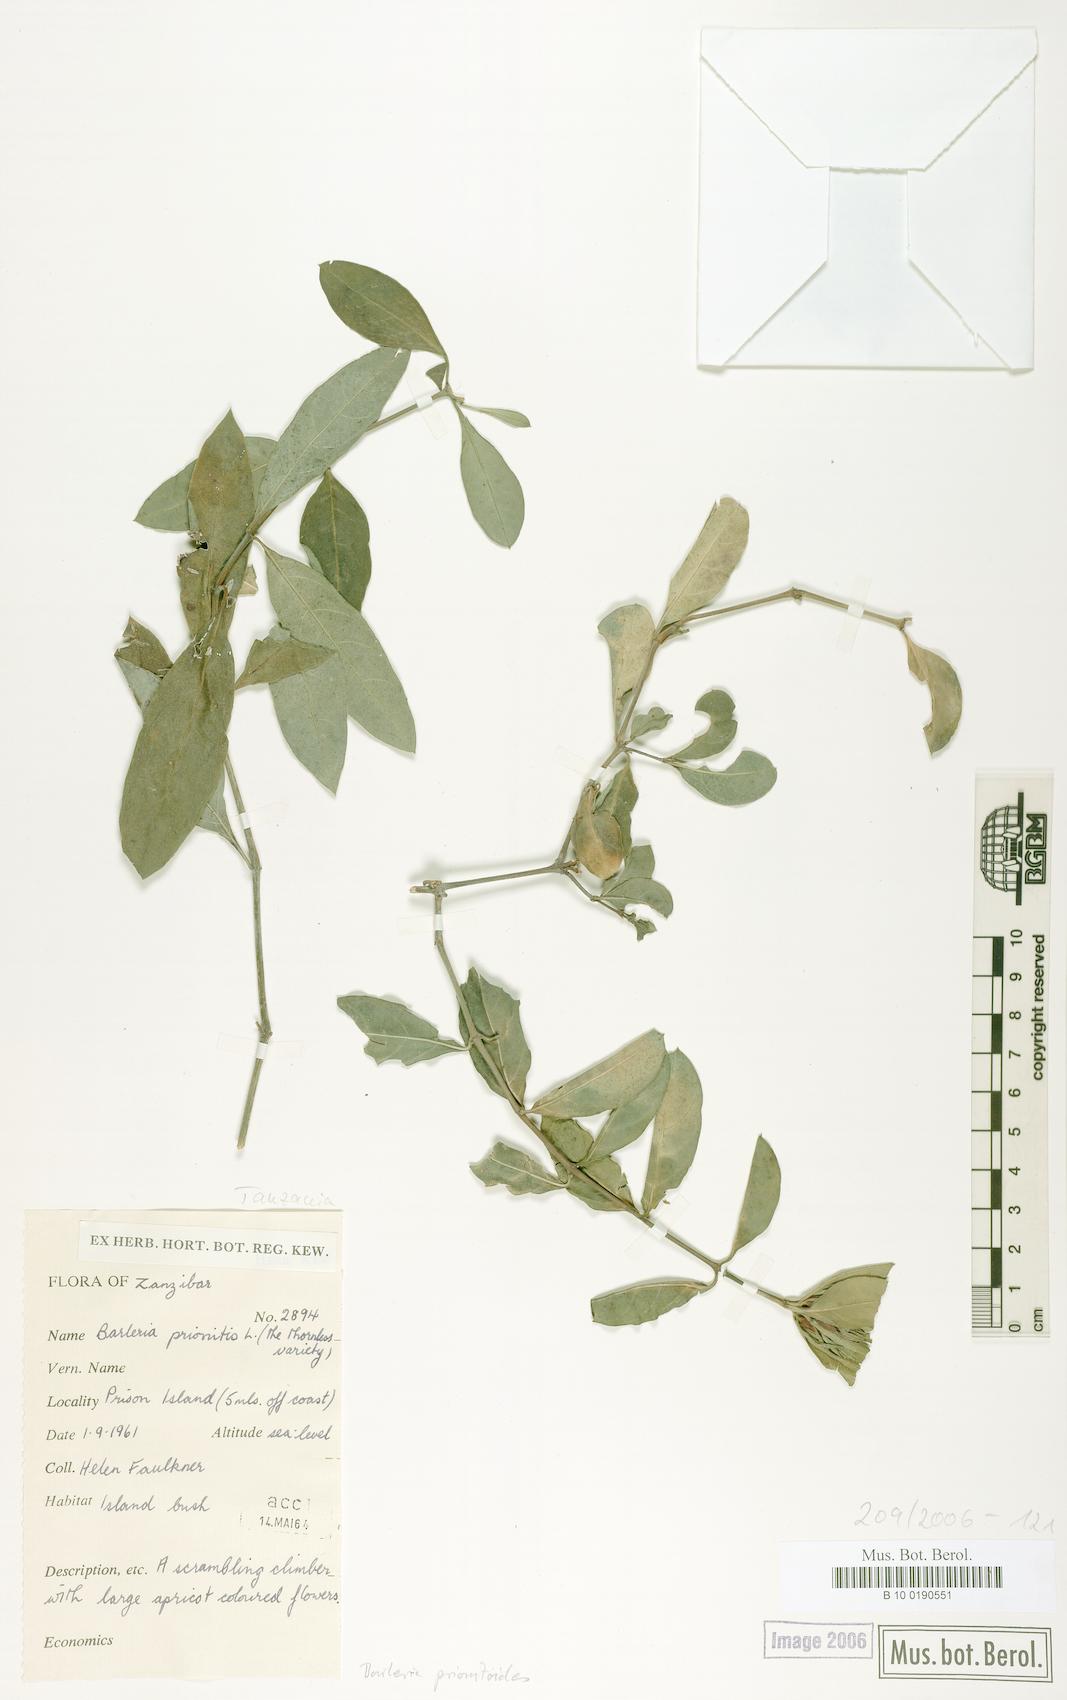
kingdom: Plantae
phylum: Tracheophyta
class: Magnoliopsida
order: Lamiales
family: Acanthaceae
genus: Barleria
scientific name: Barleria prionitis
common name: Barleria
